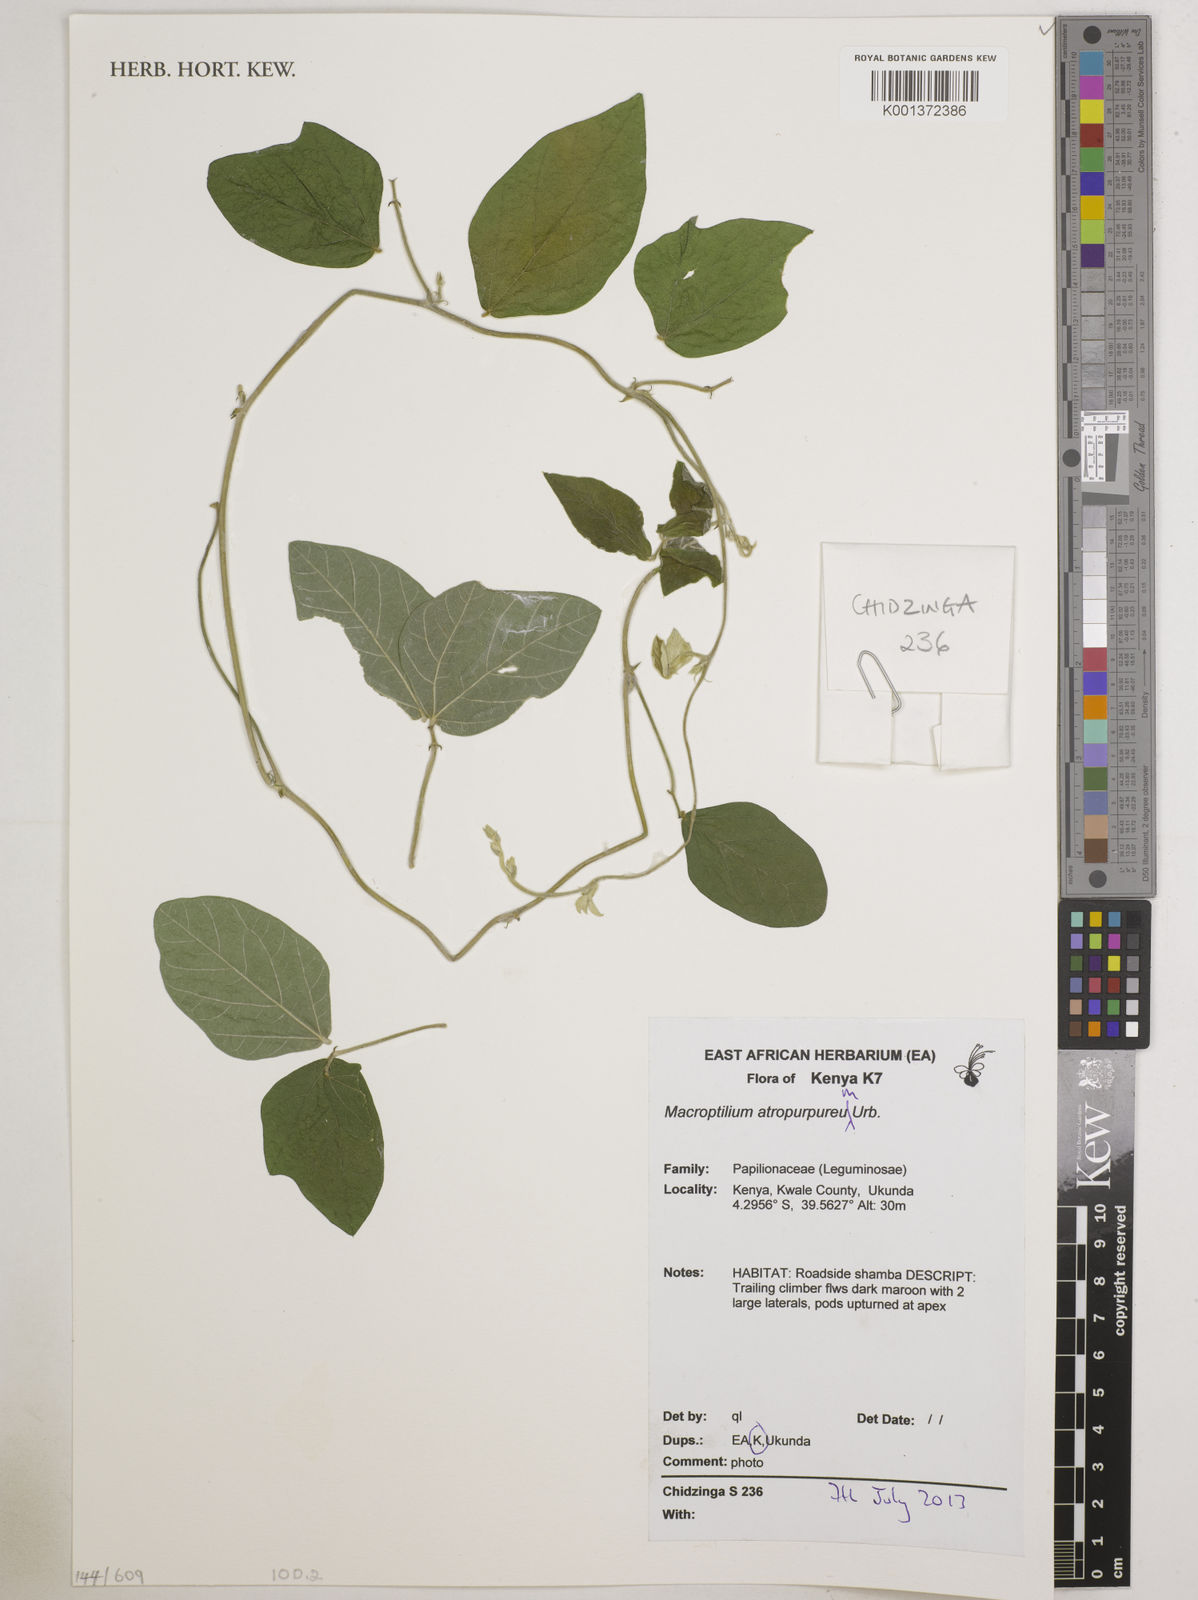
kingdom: Plantae
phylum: Tracheophyta
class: Magnoliopsida
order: Fabales
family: Fabaceae
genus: Macroptilium
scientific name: Macroptilium atropurpureum
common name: Purple bushbean
